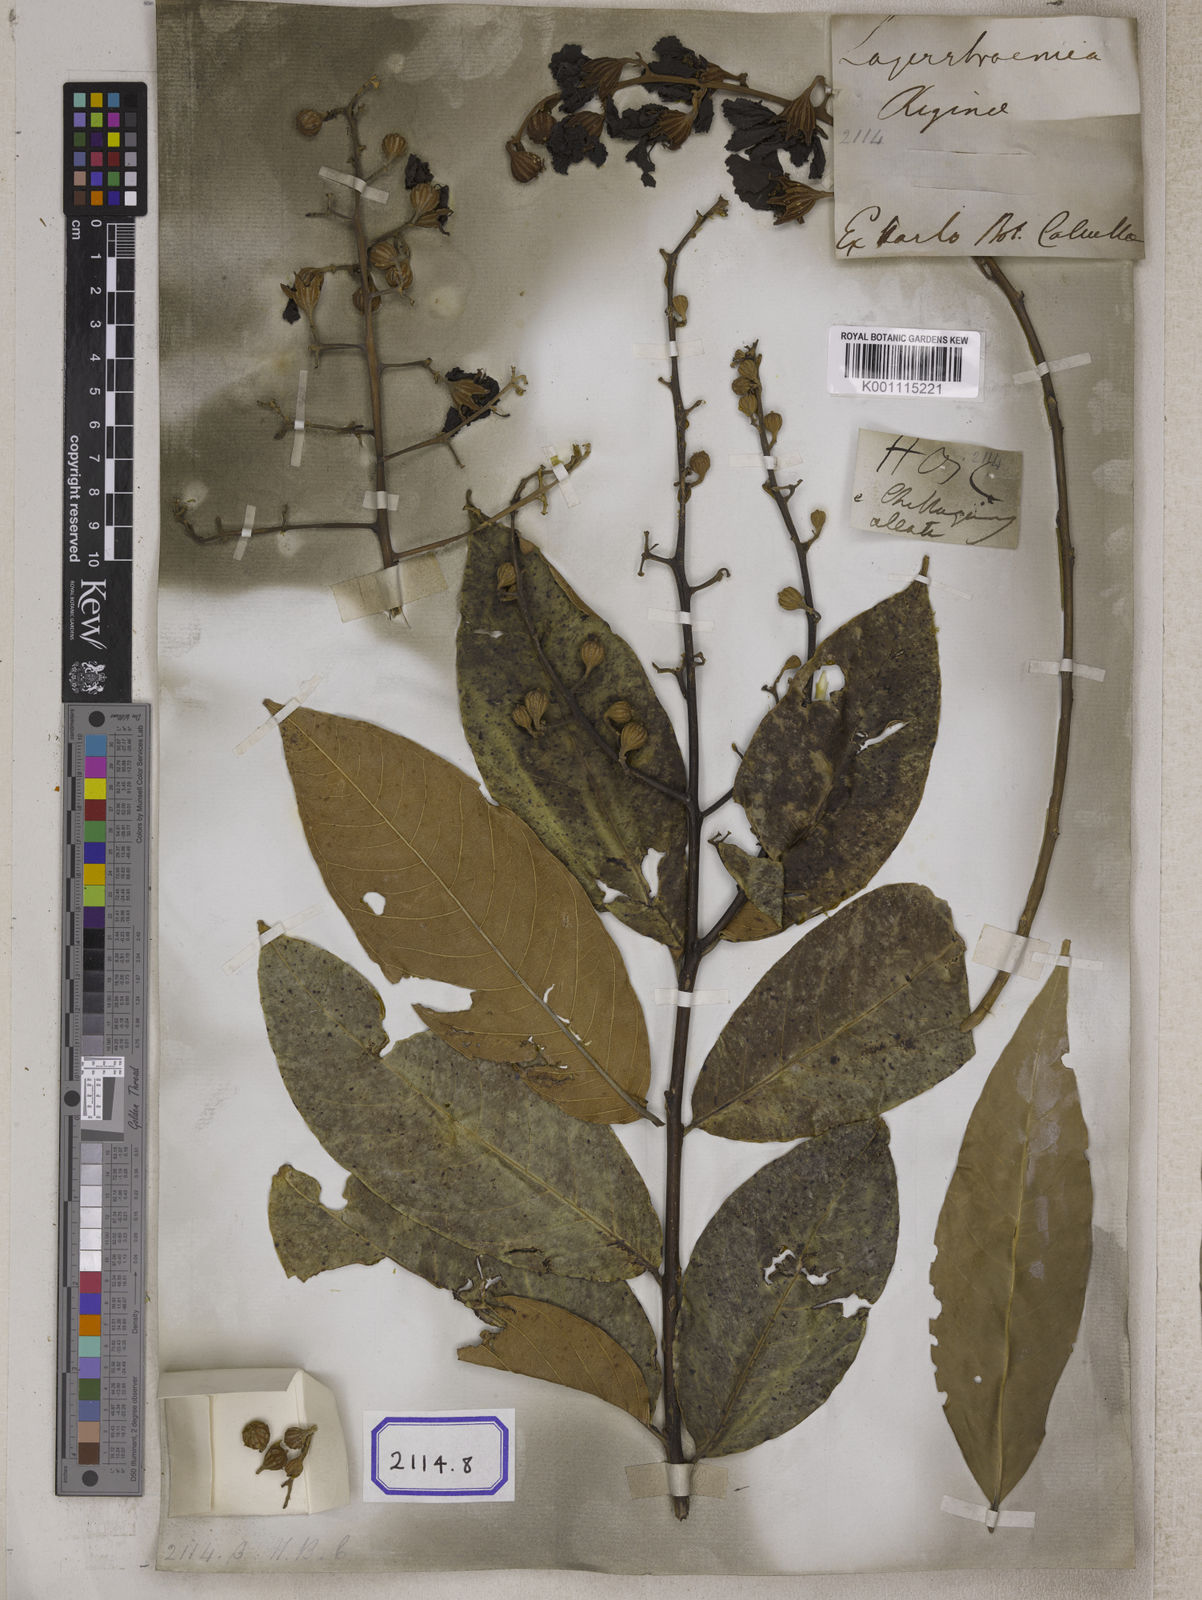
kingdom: Plantae
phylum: Tracheophyta
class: Magnoliopsida
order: Myrtales
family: Lythraceae
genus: Lagerstroemia
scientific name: Lagerstroemia
